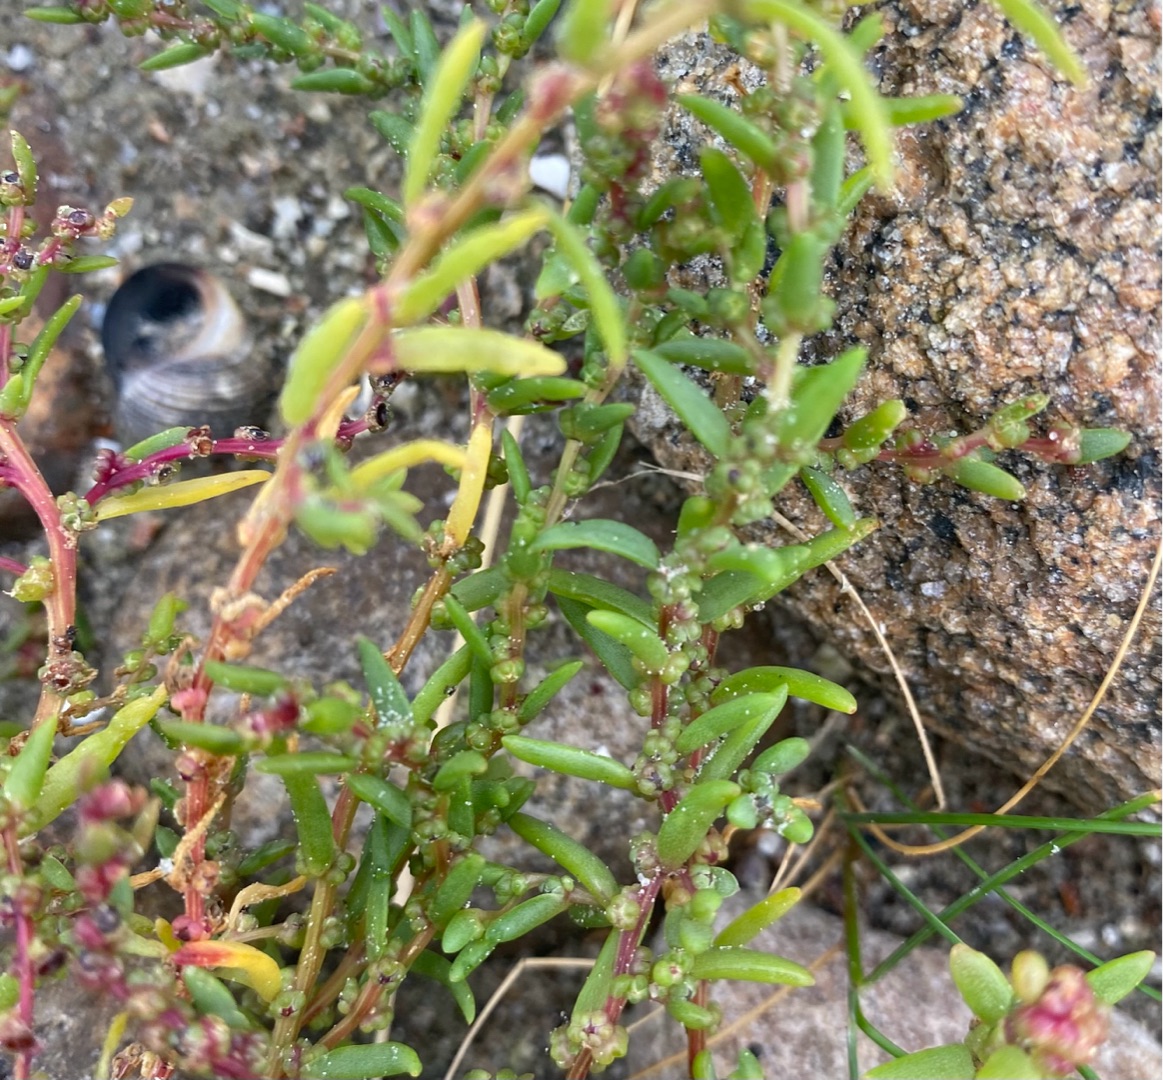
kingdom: Plantae
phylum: Tracheophyta
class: Magnoliopsida
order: Caryophyllales
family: Amaranthaceae
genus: Suaeda
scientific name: Suaeda maritima
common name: Strandgåsefod
